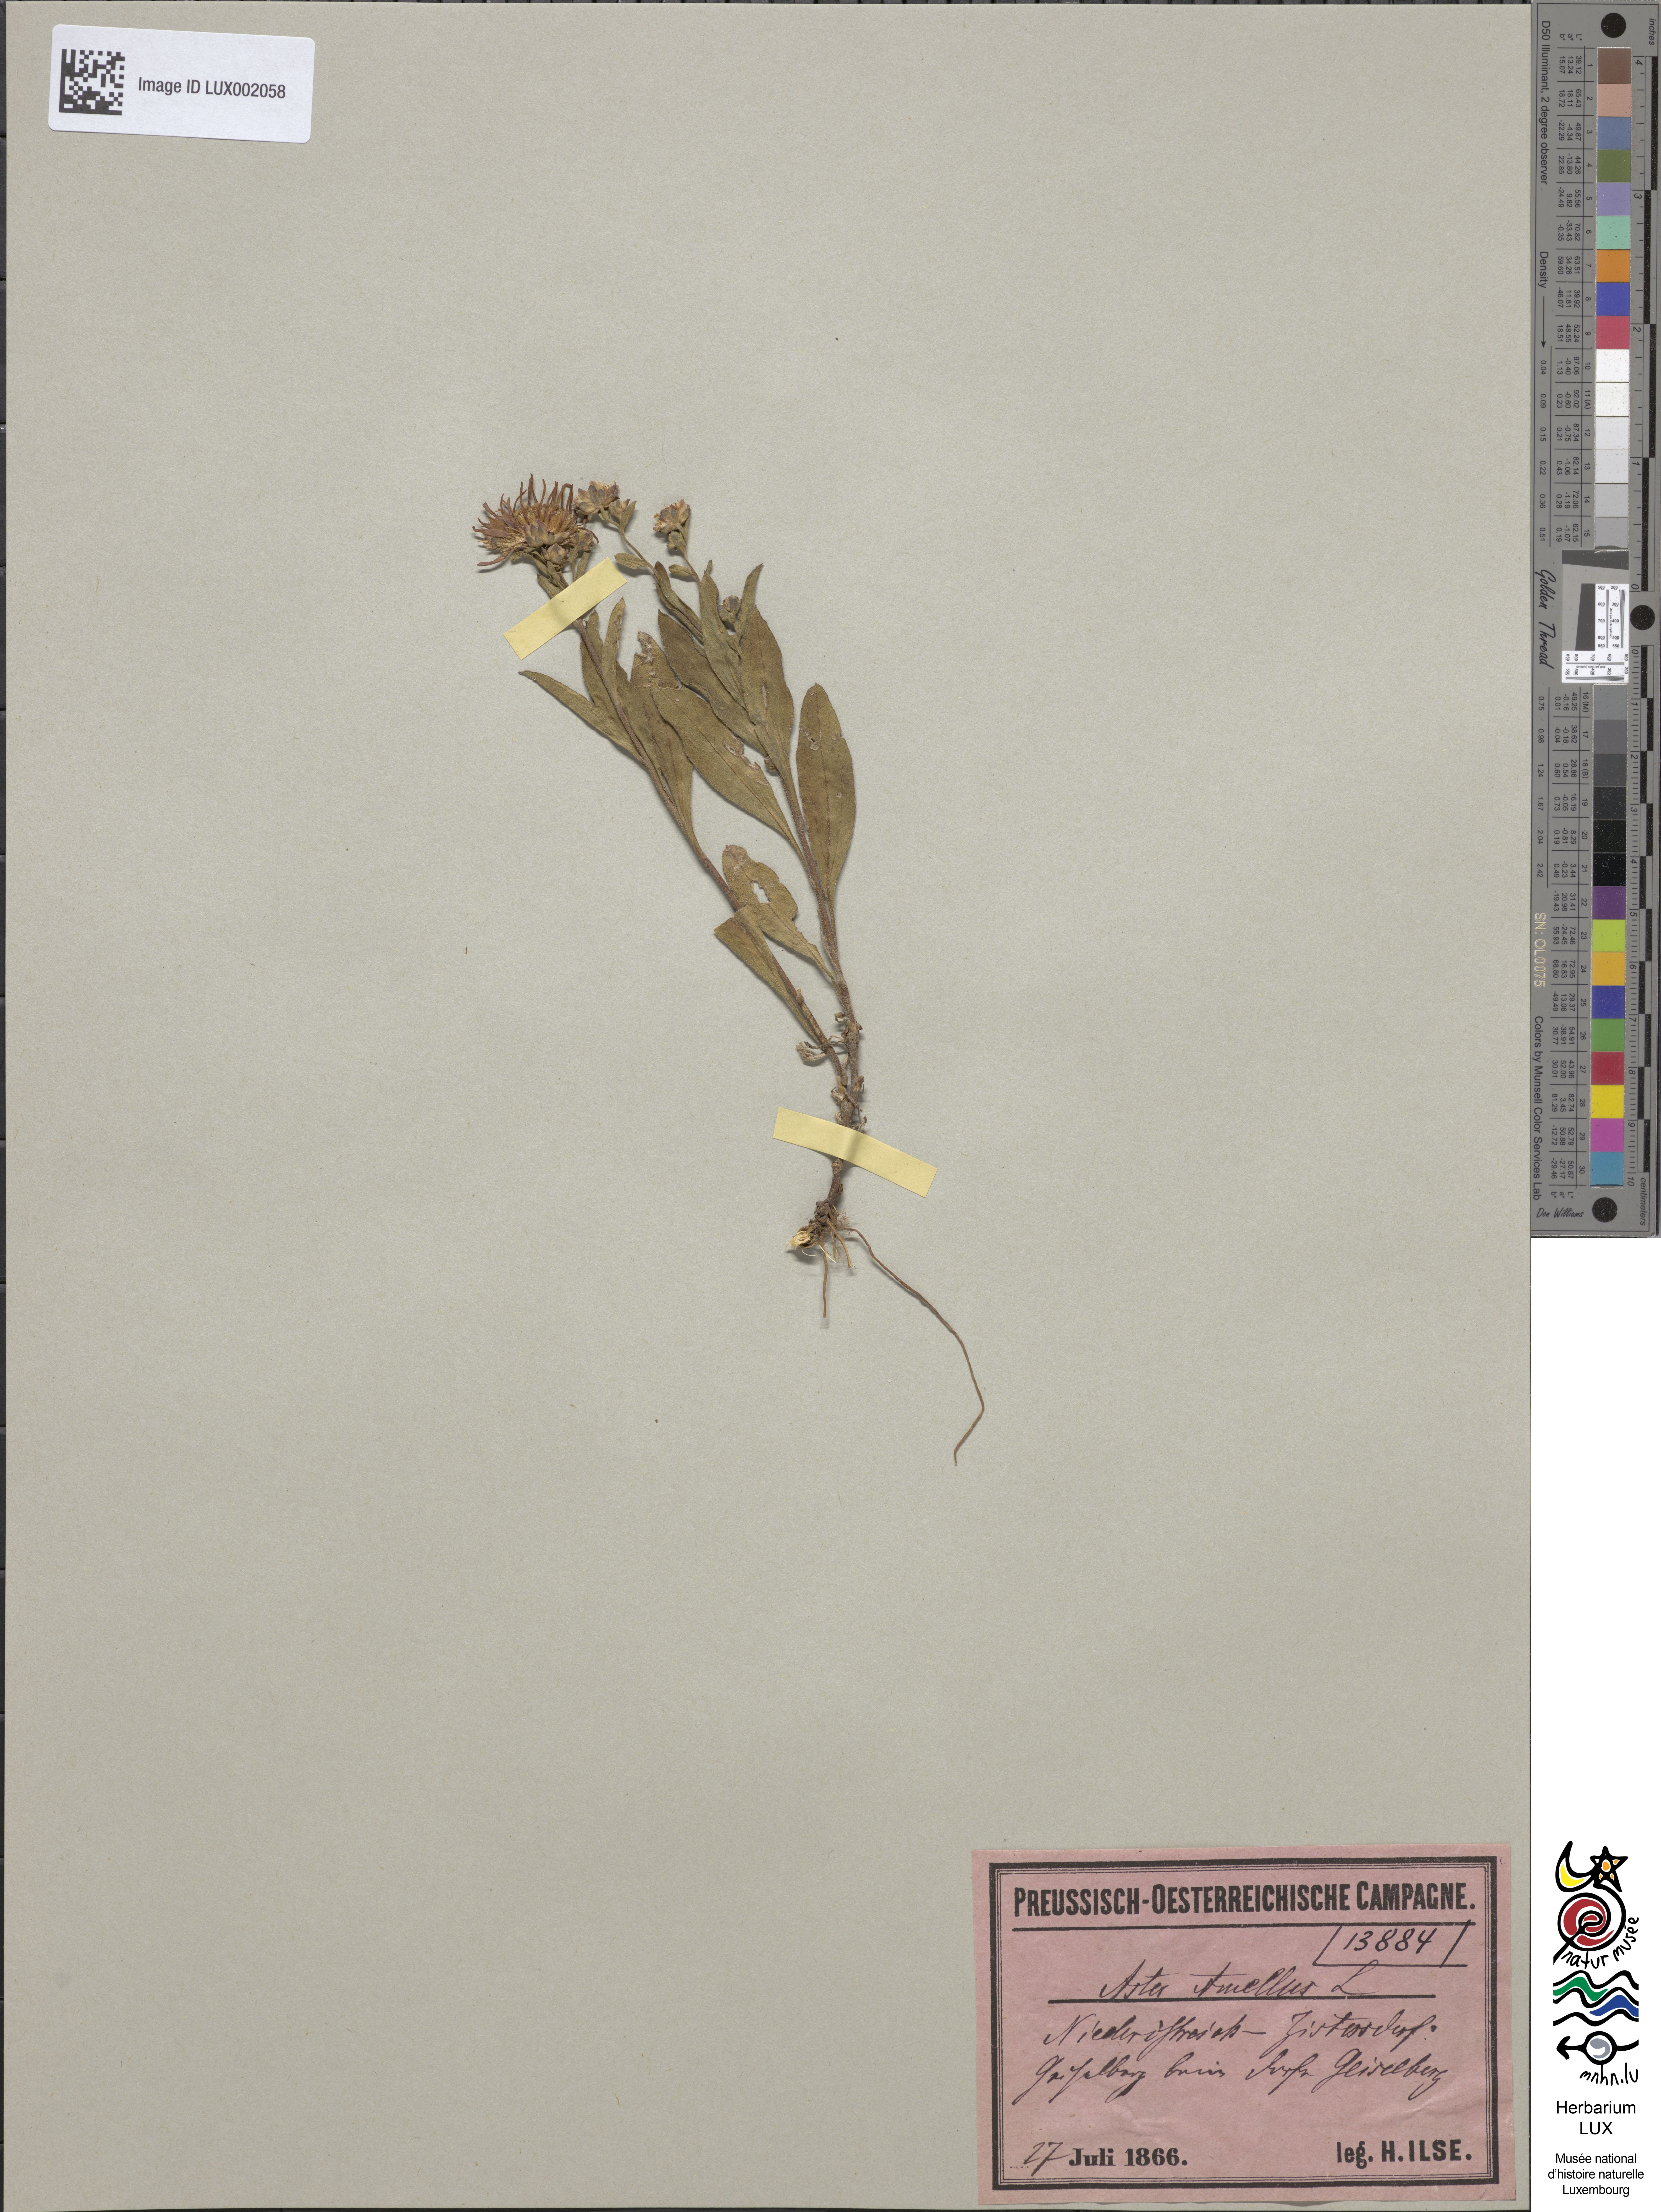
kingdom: Plantae
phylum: Tracheophyta
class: Magnoliopsida
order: Asterales
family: Asteraceae
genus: Aster
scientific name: Aster amellus
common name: European michaelmas daisy
